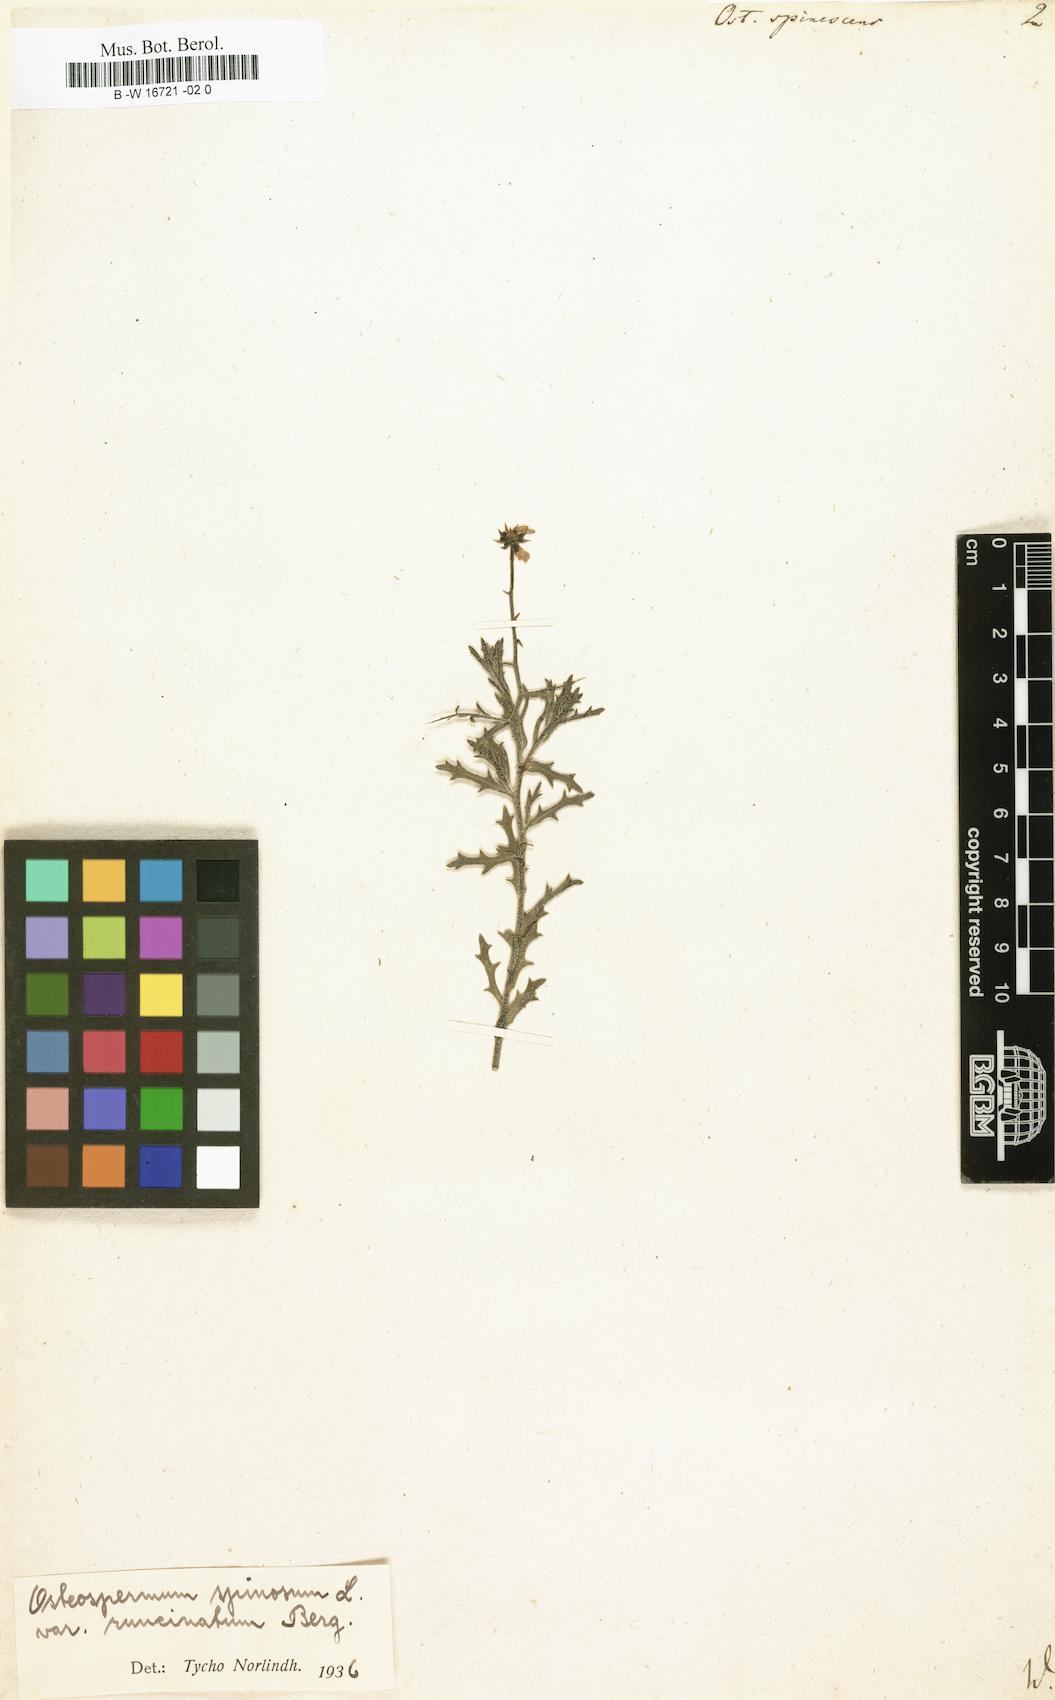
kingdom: Plantae
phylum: Tracheophyta
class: Magnoliopsida
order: Asterales
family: Asteraceae
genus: Osteospermum
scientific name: Osteospermum spinescens
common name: Sunflower
